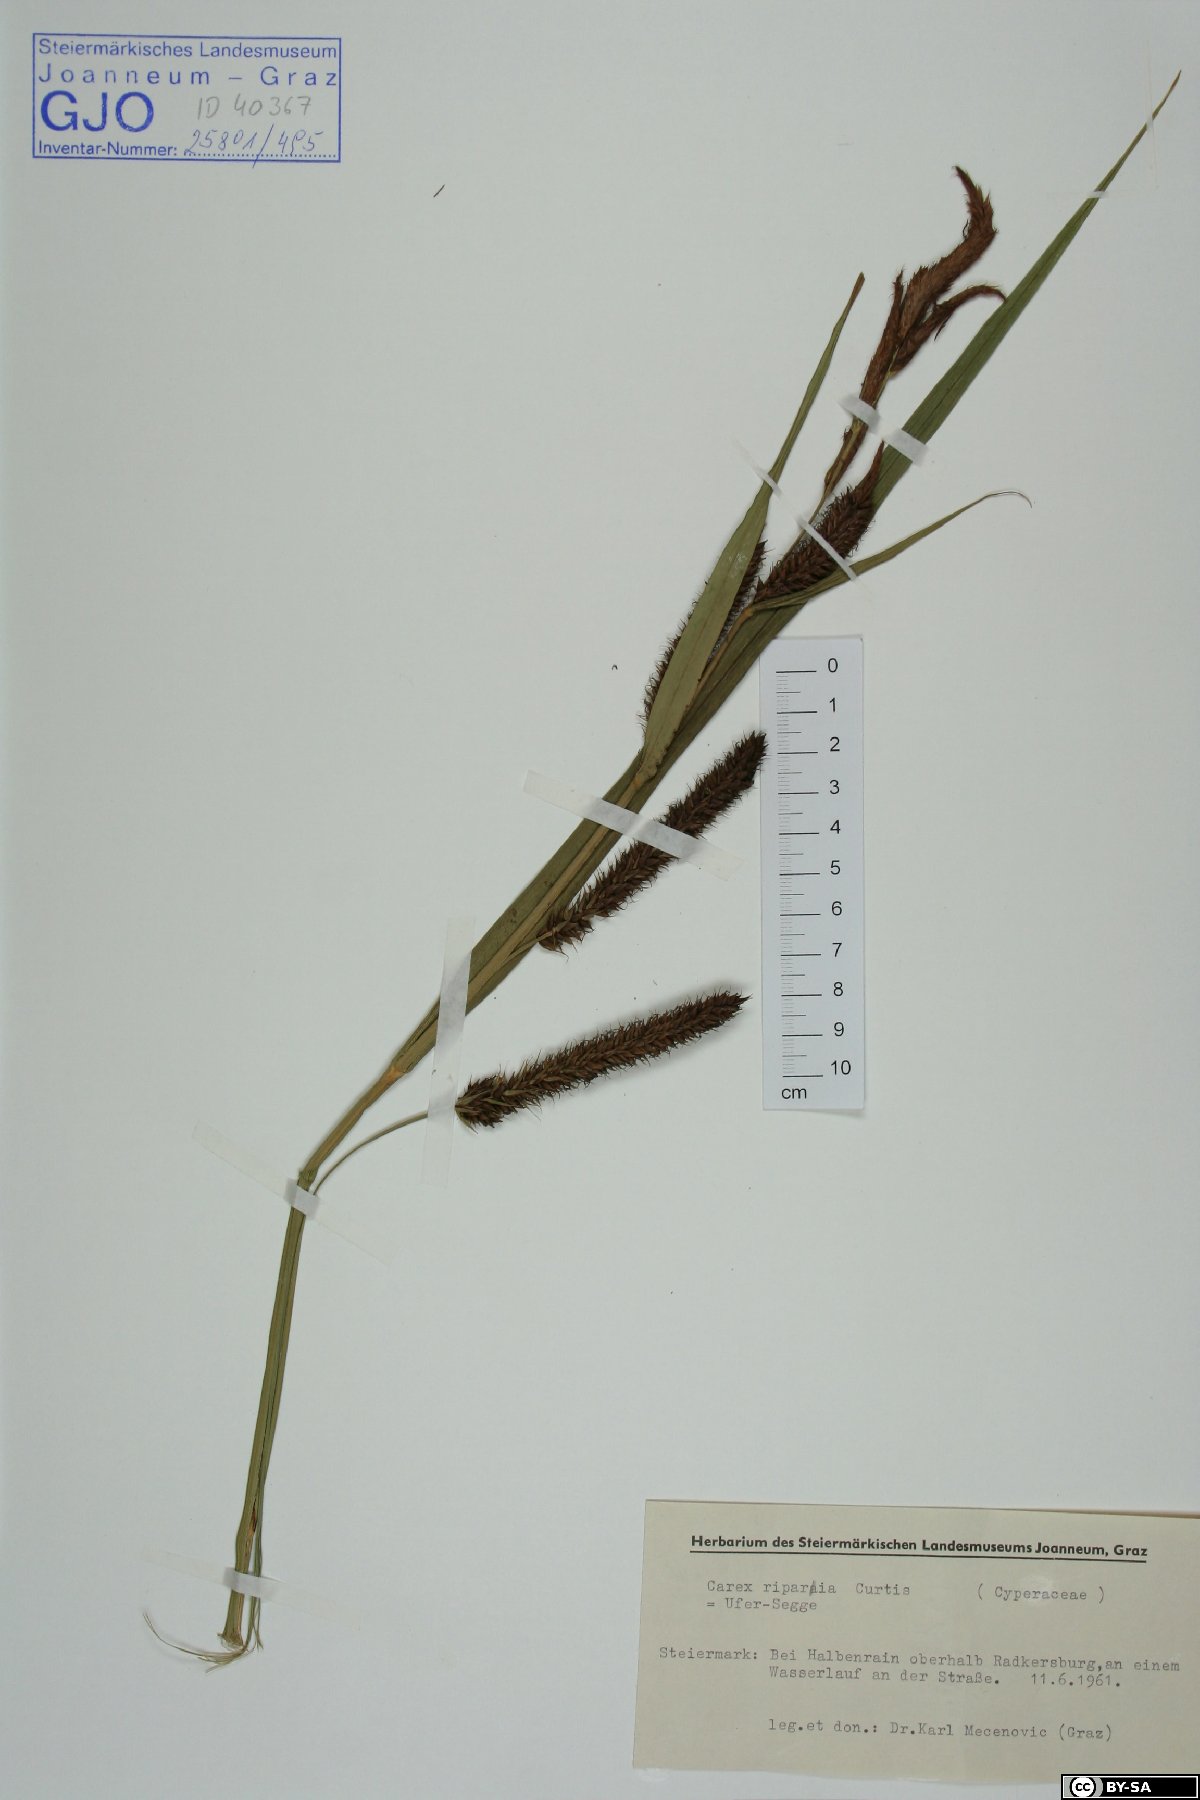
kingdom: Plantae
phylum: Tracheophyta
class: Liliopsida
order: Poales
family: Cyperaceae
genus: Carex
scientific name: Carex riparia
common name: Greater pond-sedge
